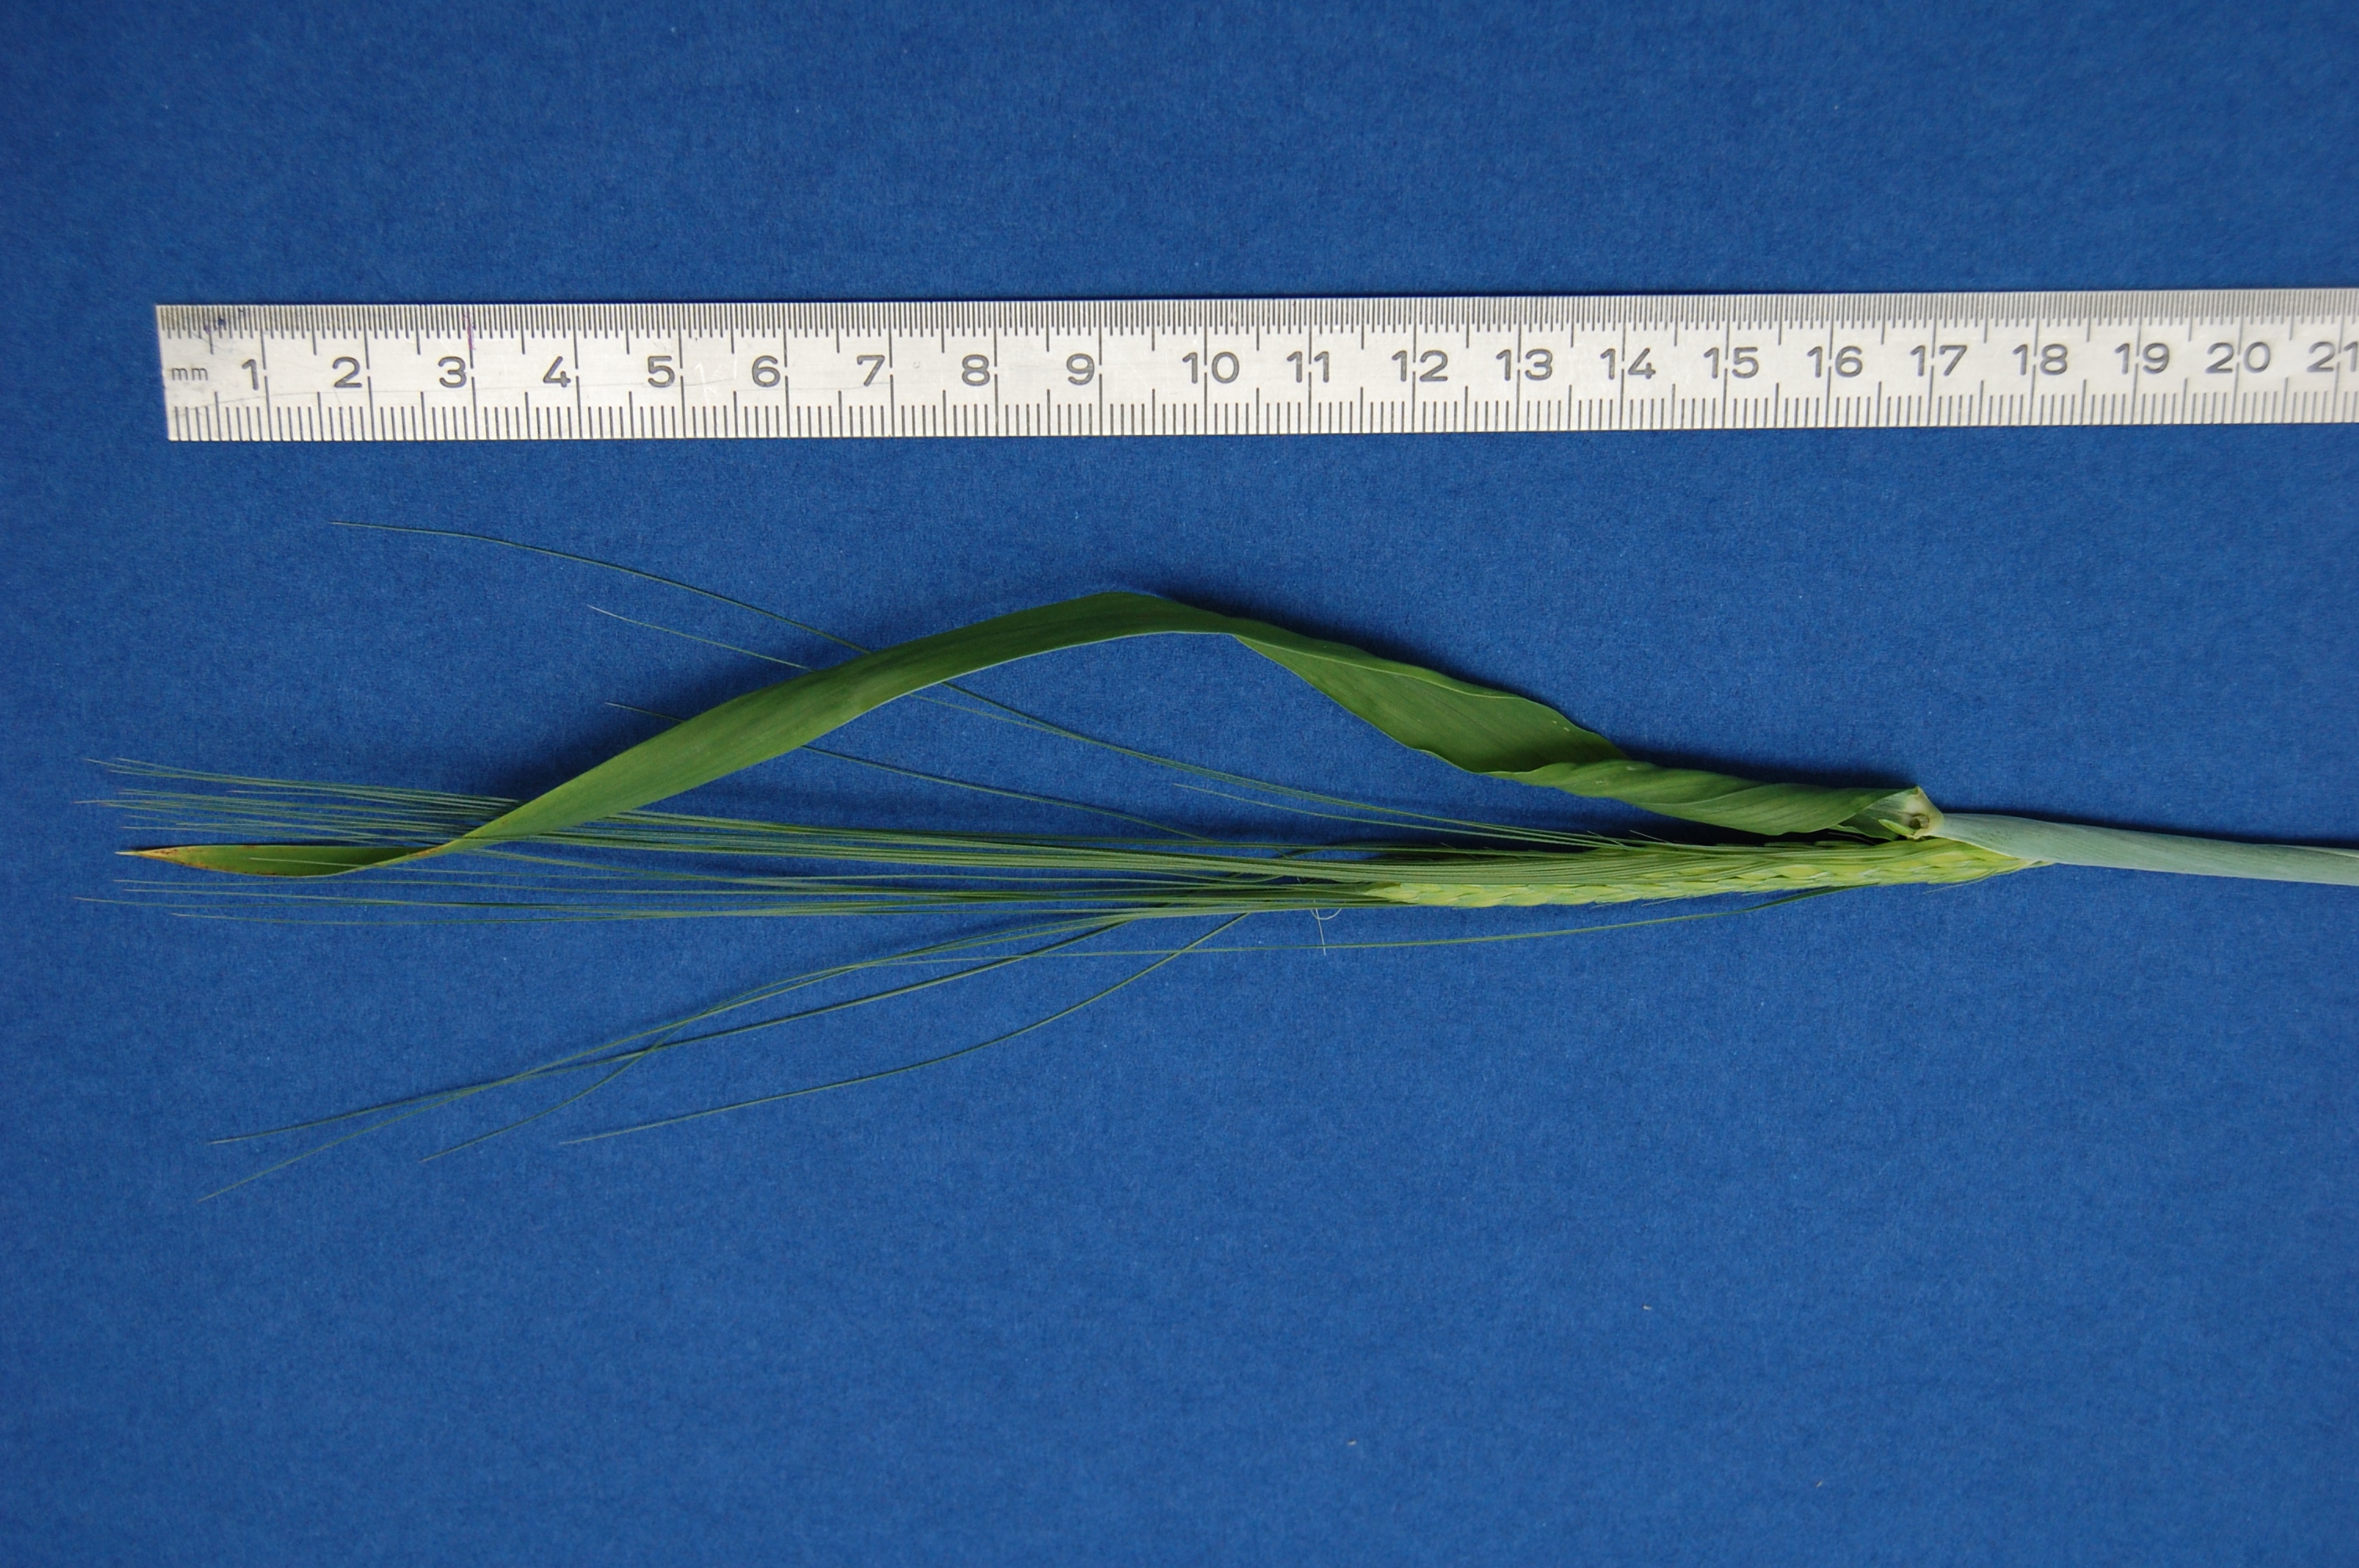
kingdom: Plantae
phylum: Tracheophyta
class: Liliopsida
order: Poales
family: Poaceae
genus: Hordeum
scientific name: Hordeum vulgare
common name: Common barley
